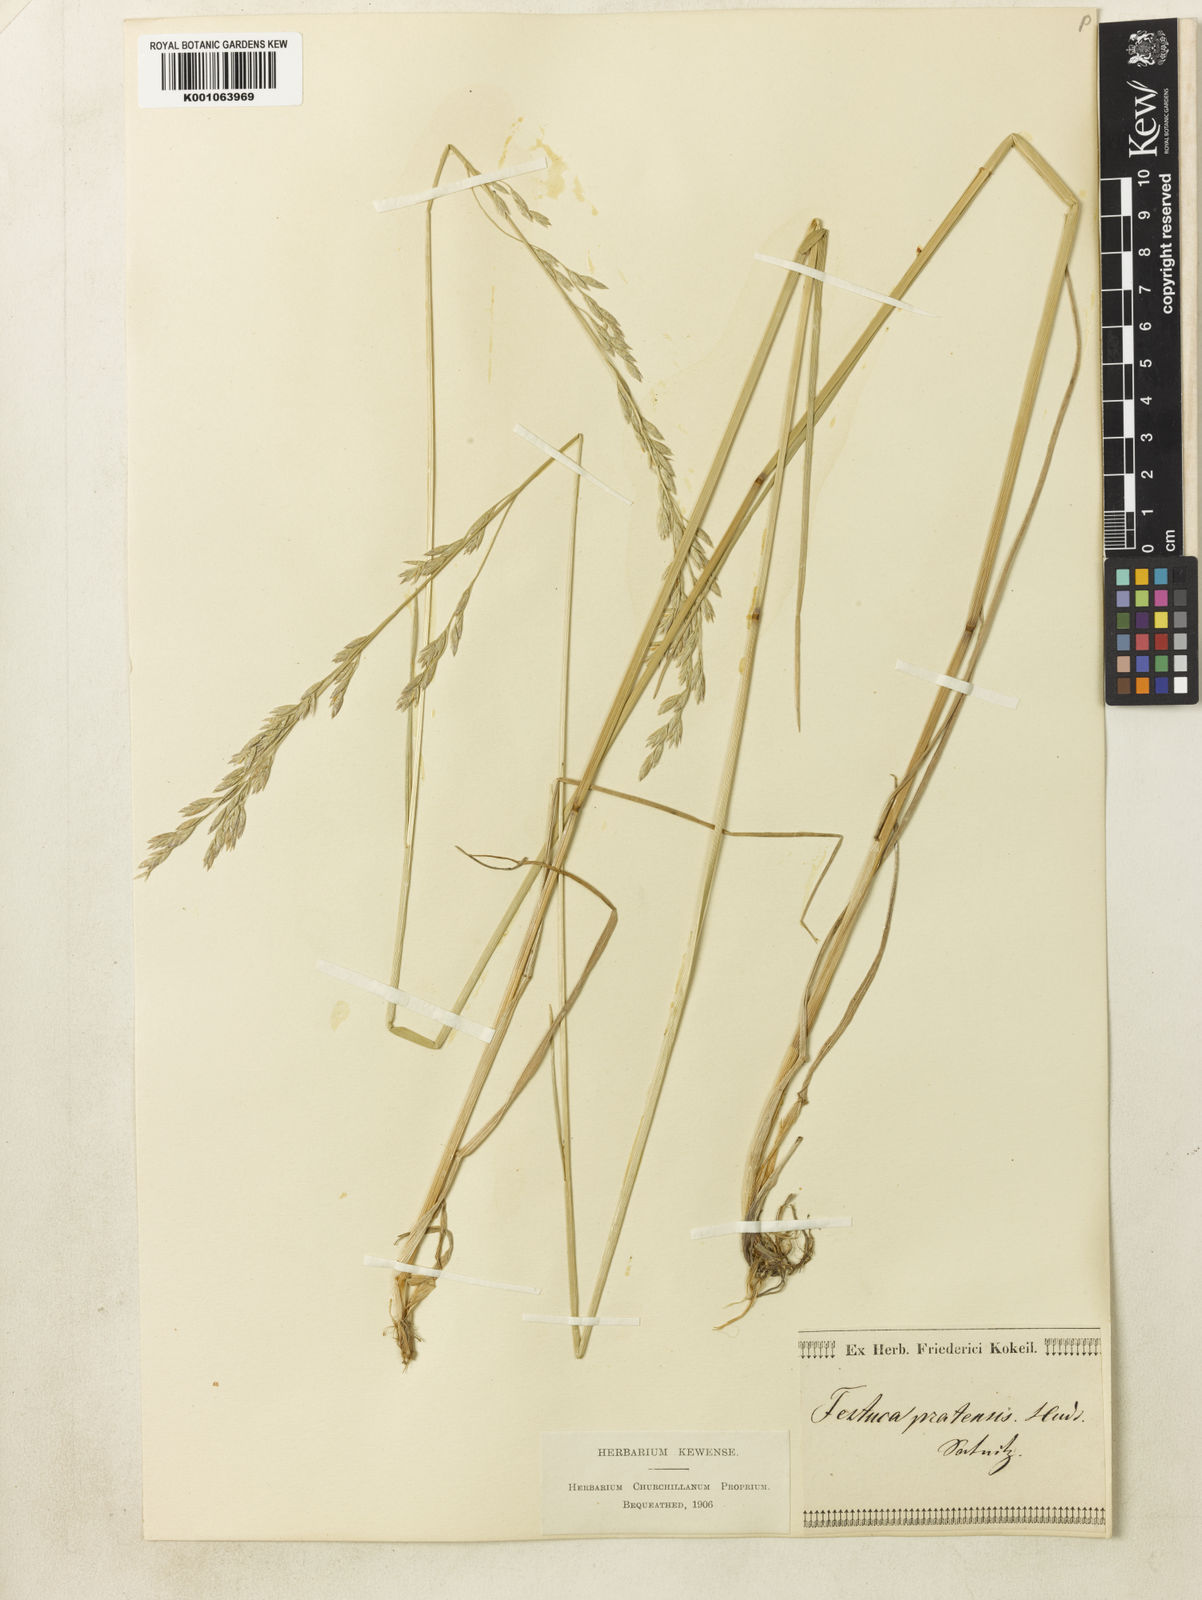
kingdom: Plantae
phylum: Tracheophyta
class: Liliopsida
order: Poales
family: Poaceae
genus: Lolium
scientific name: Lolium arundinaceum
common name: Reed fescue
